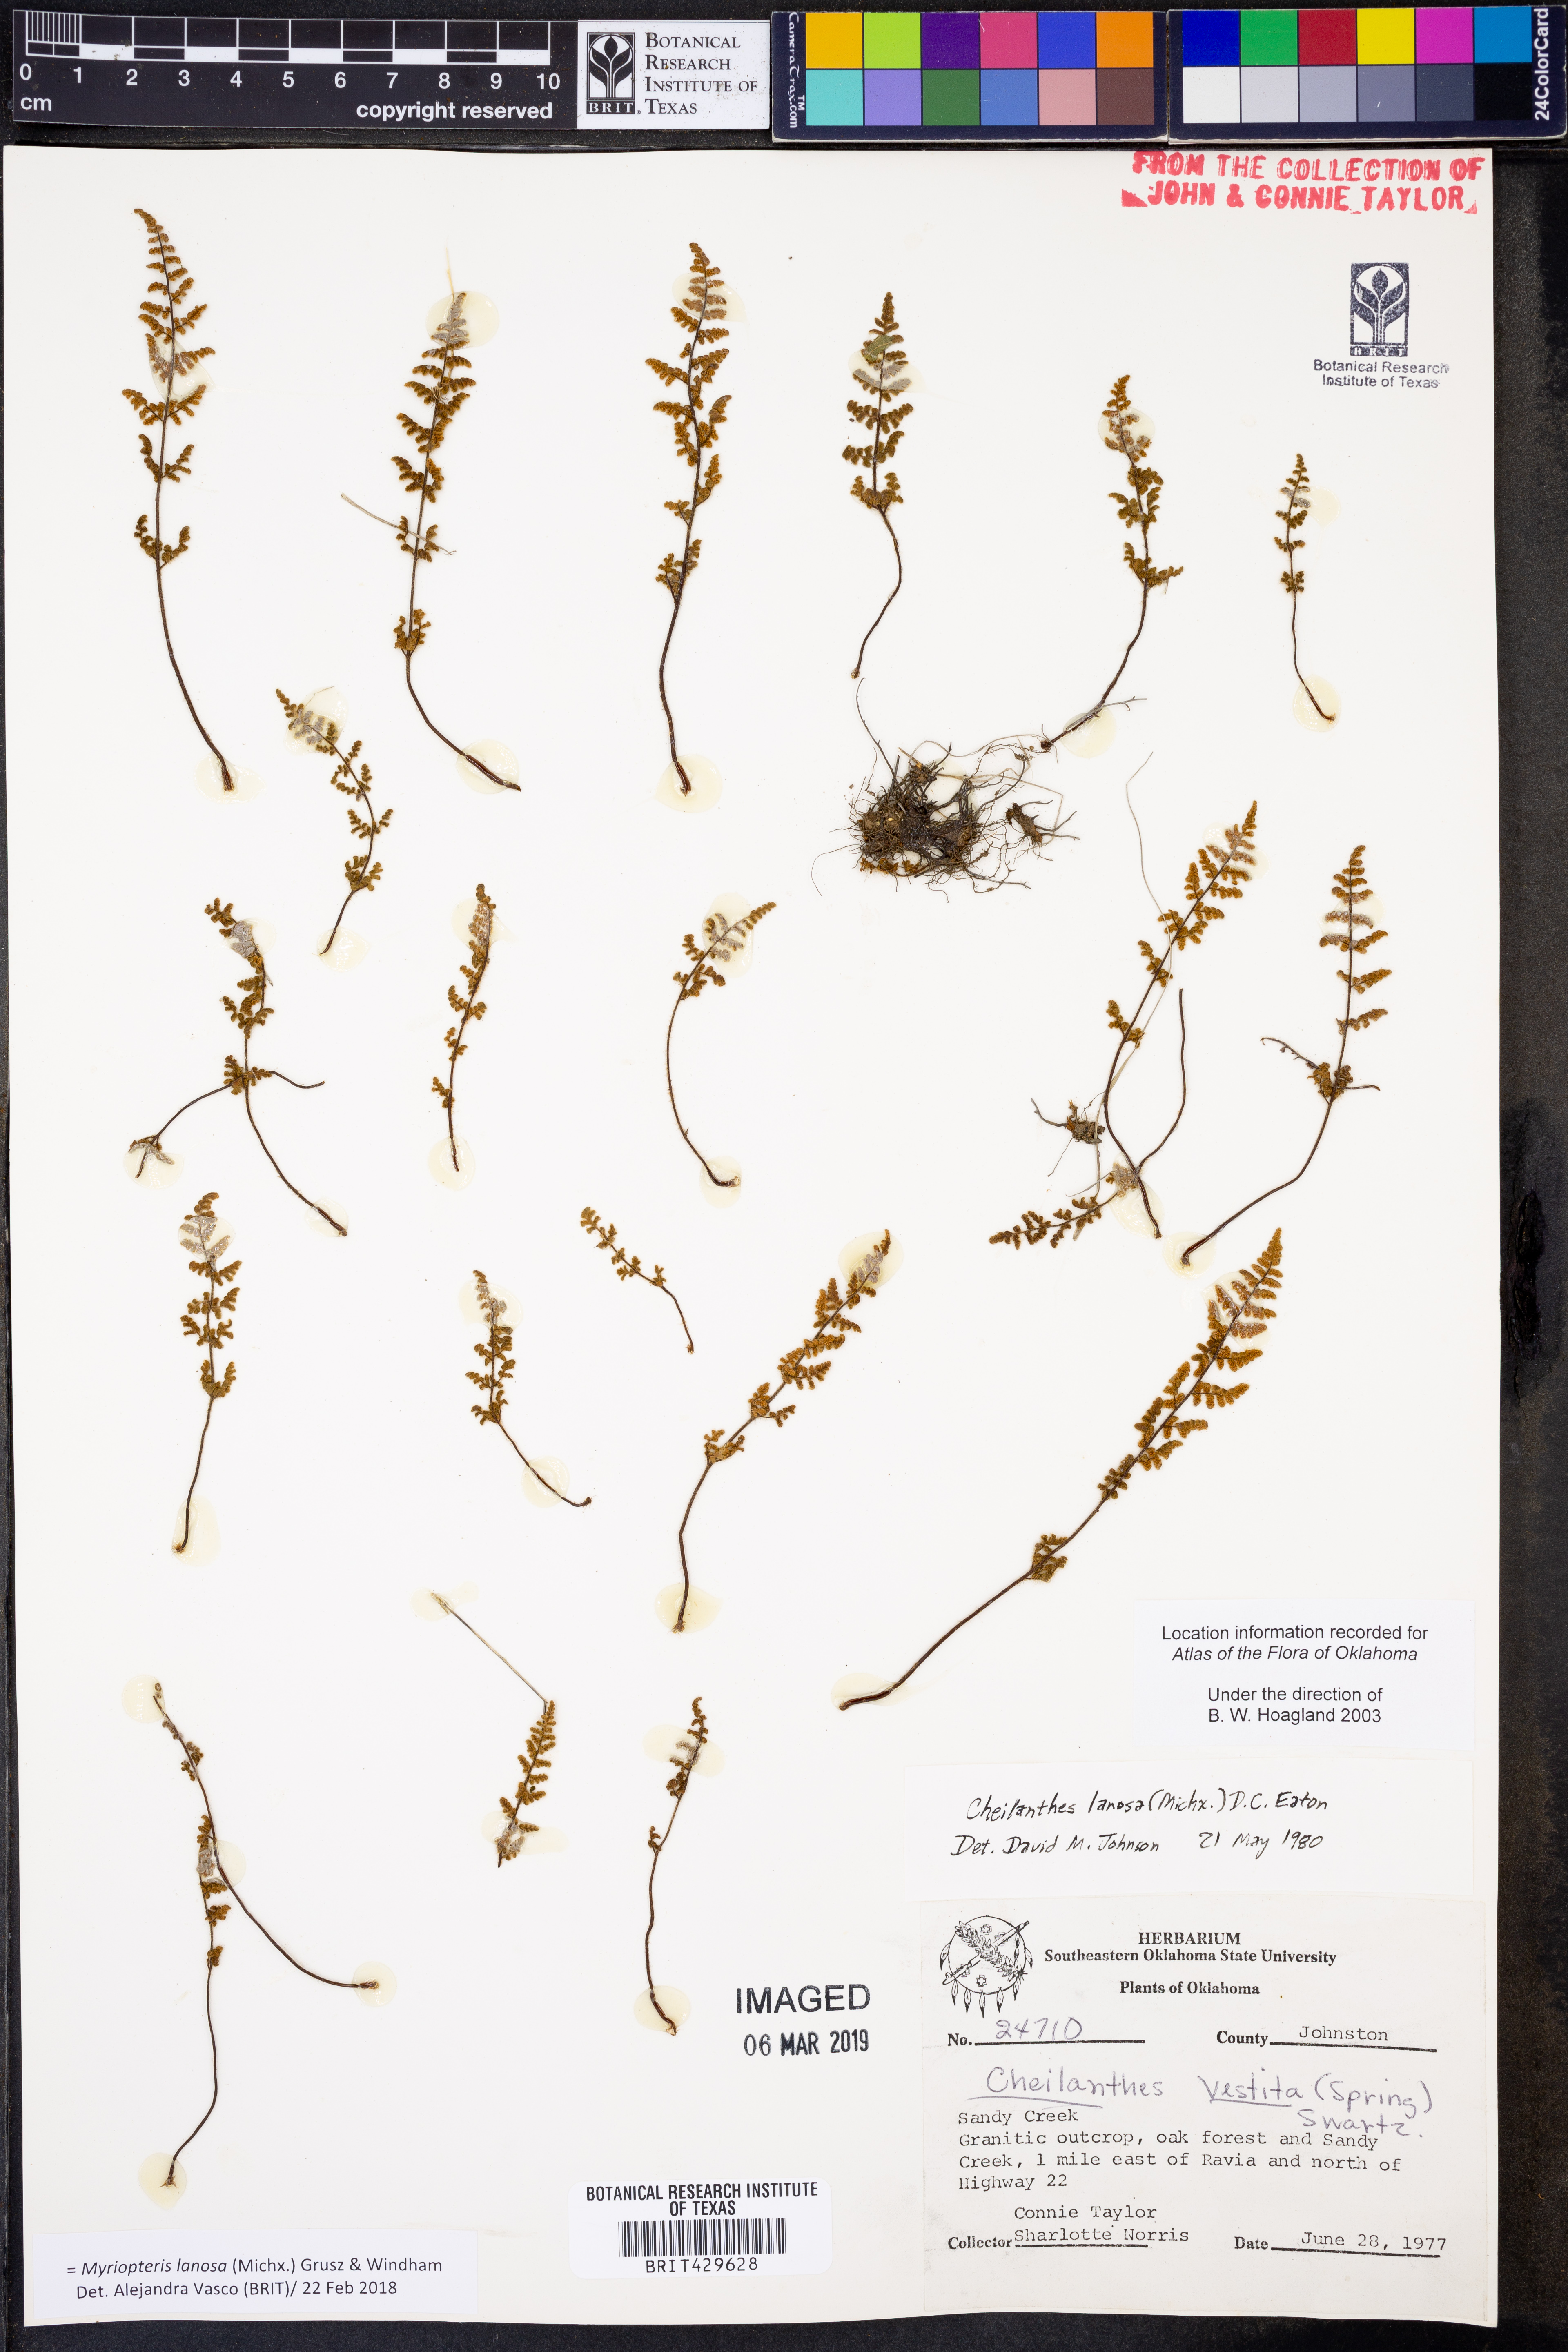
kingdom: Plantae
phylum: Tracheophyta
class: Polypodiopsida
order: Polypodiales
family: Pteridaceae
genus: Myriopteris
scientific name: Myriopteris lanosa
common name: Hairy lip fern
